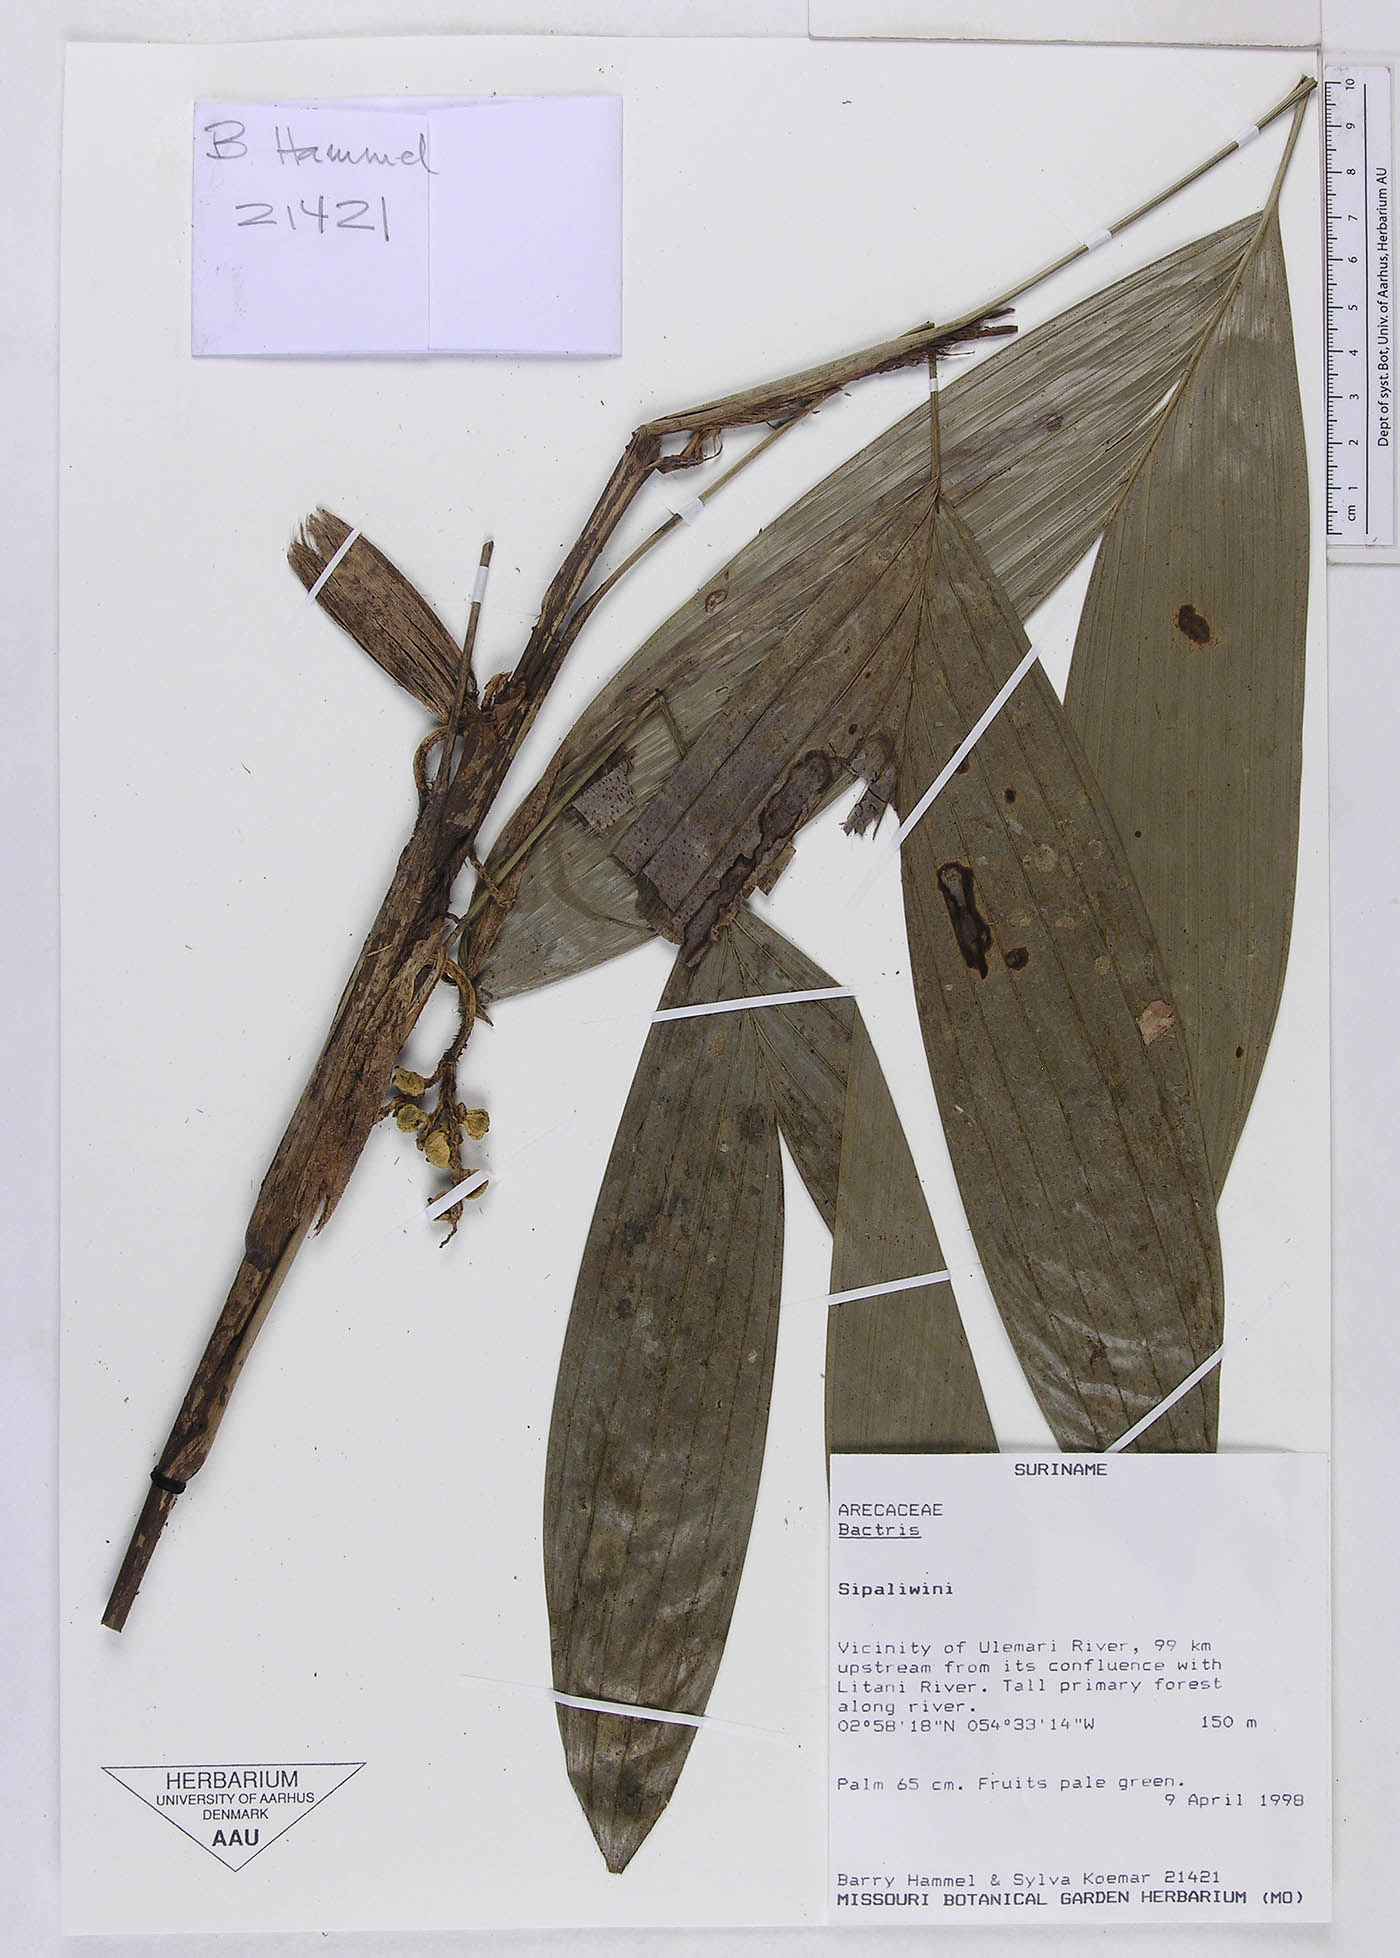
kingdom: Plantae
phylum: Tracheophyta
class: Liliopsida
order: Arecales
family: Arecaceae
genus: Bactris
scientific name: Bactris
